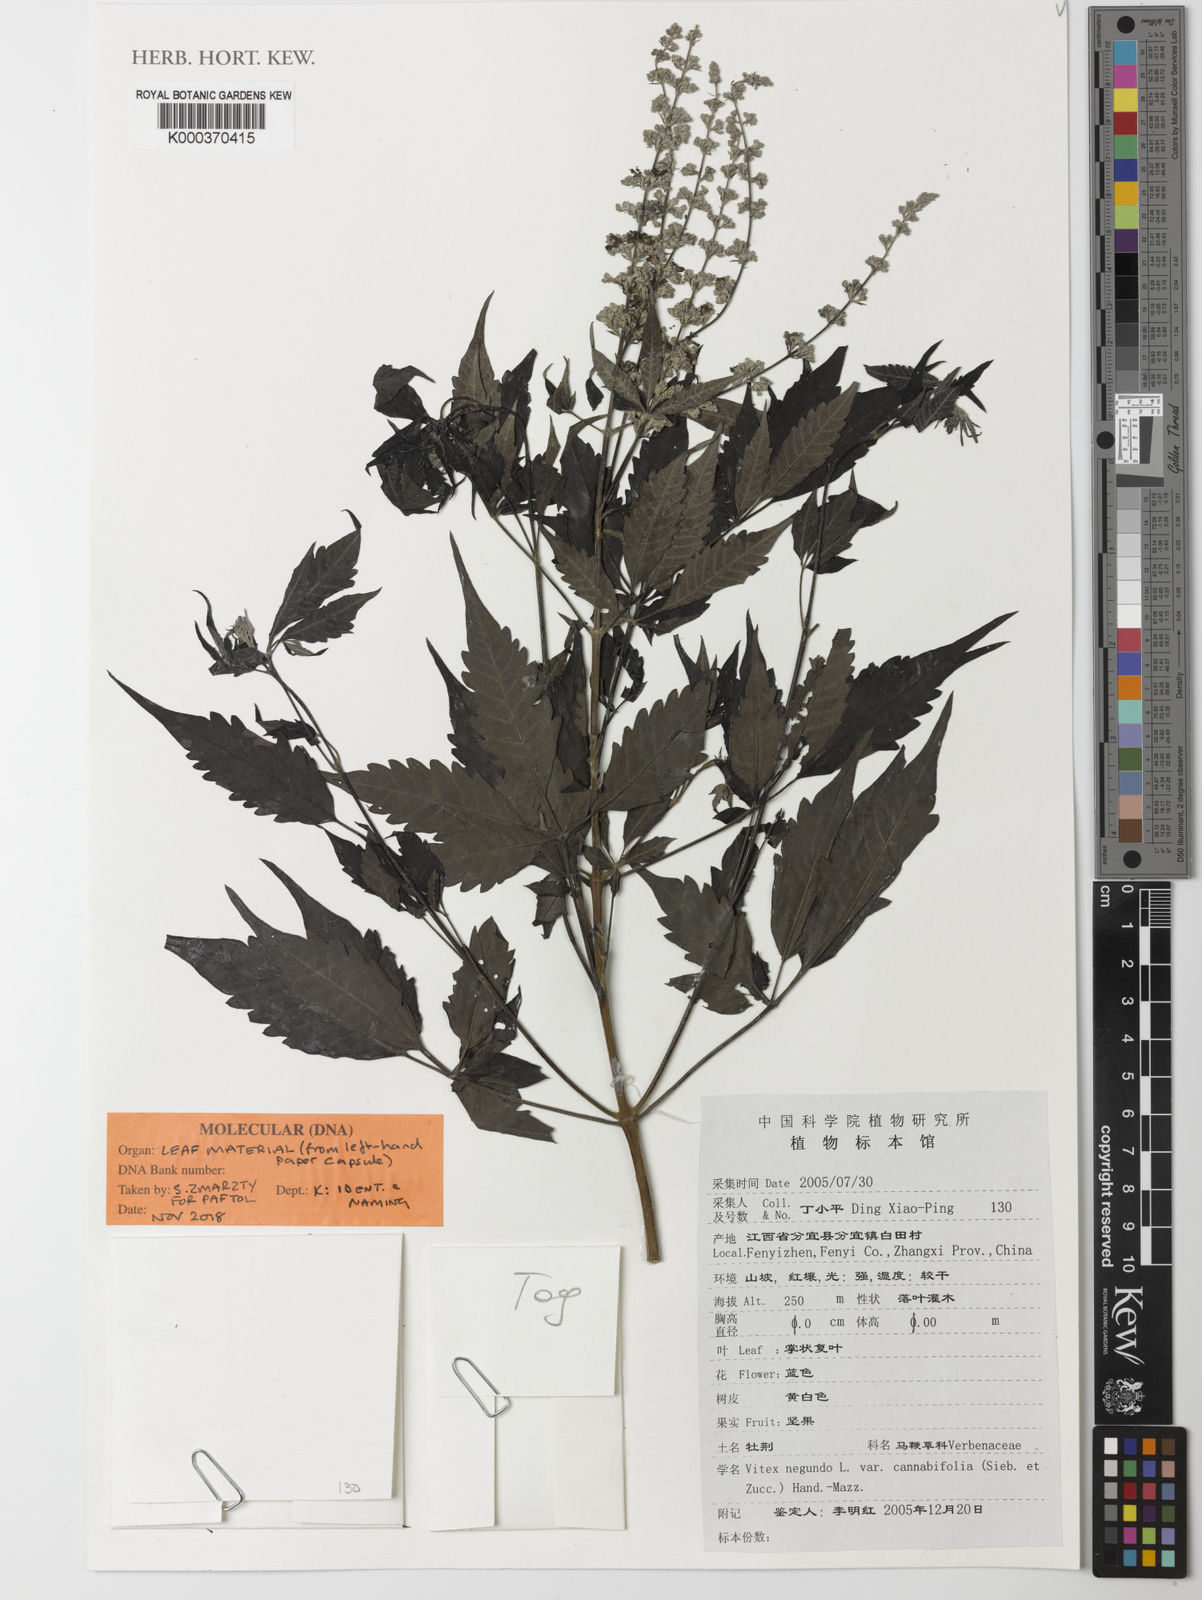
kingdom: Plantae
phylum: Tracheophyta
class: Magnoliopsida
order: Lamiales
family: Lamiaceae
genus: Vitex
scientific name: Vitex negundo
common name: Chinese chastetree
